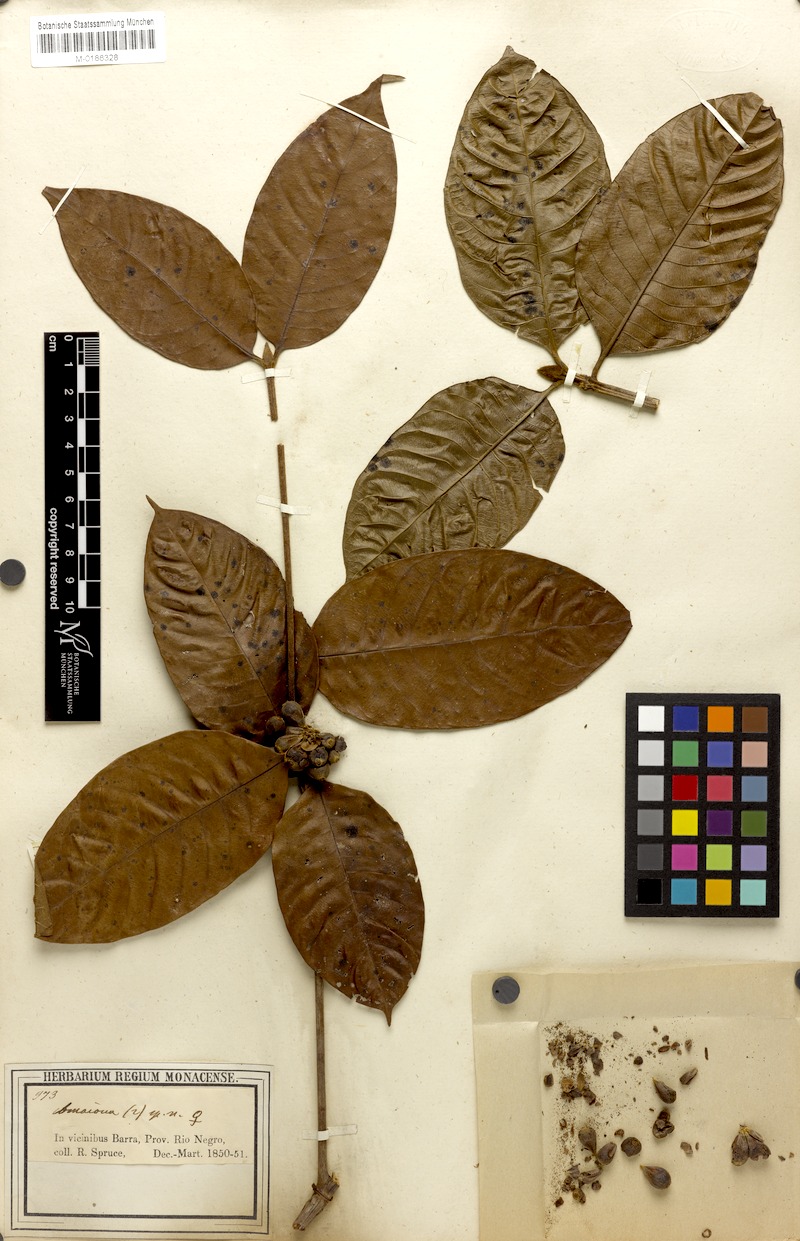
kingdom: Plantae
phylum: Tracheophyta
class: Magnoliopsida
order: Gentianales
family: Rubiaceae
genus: Amaioua
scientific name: Amaioua guianensis
